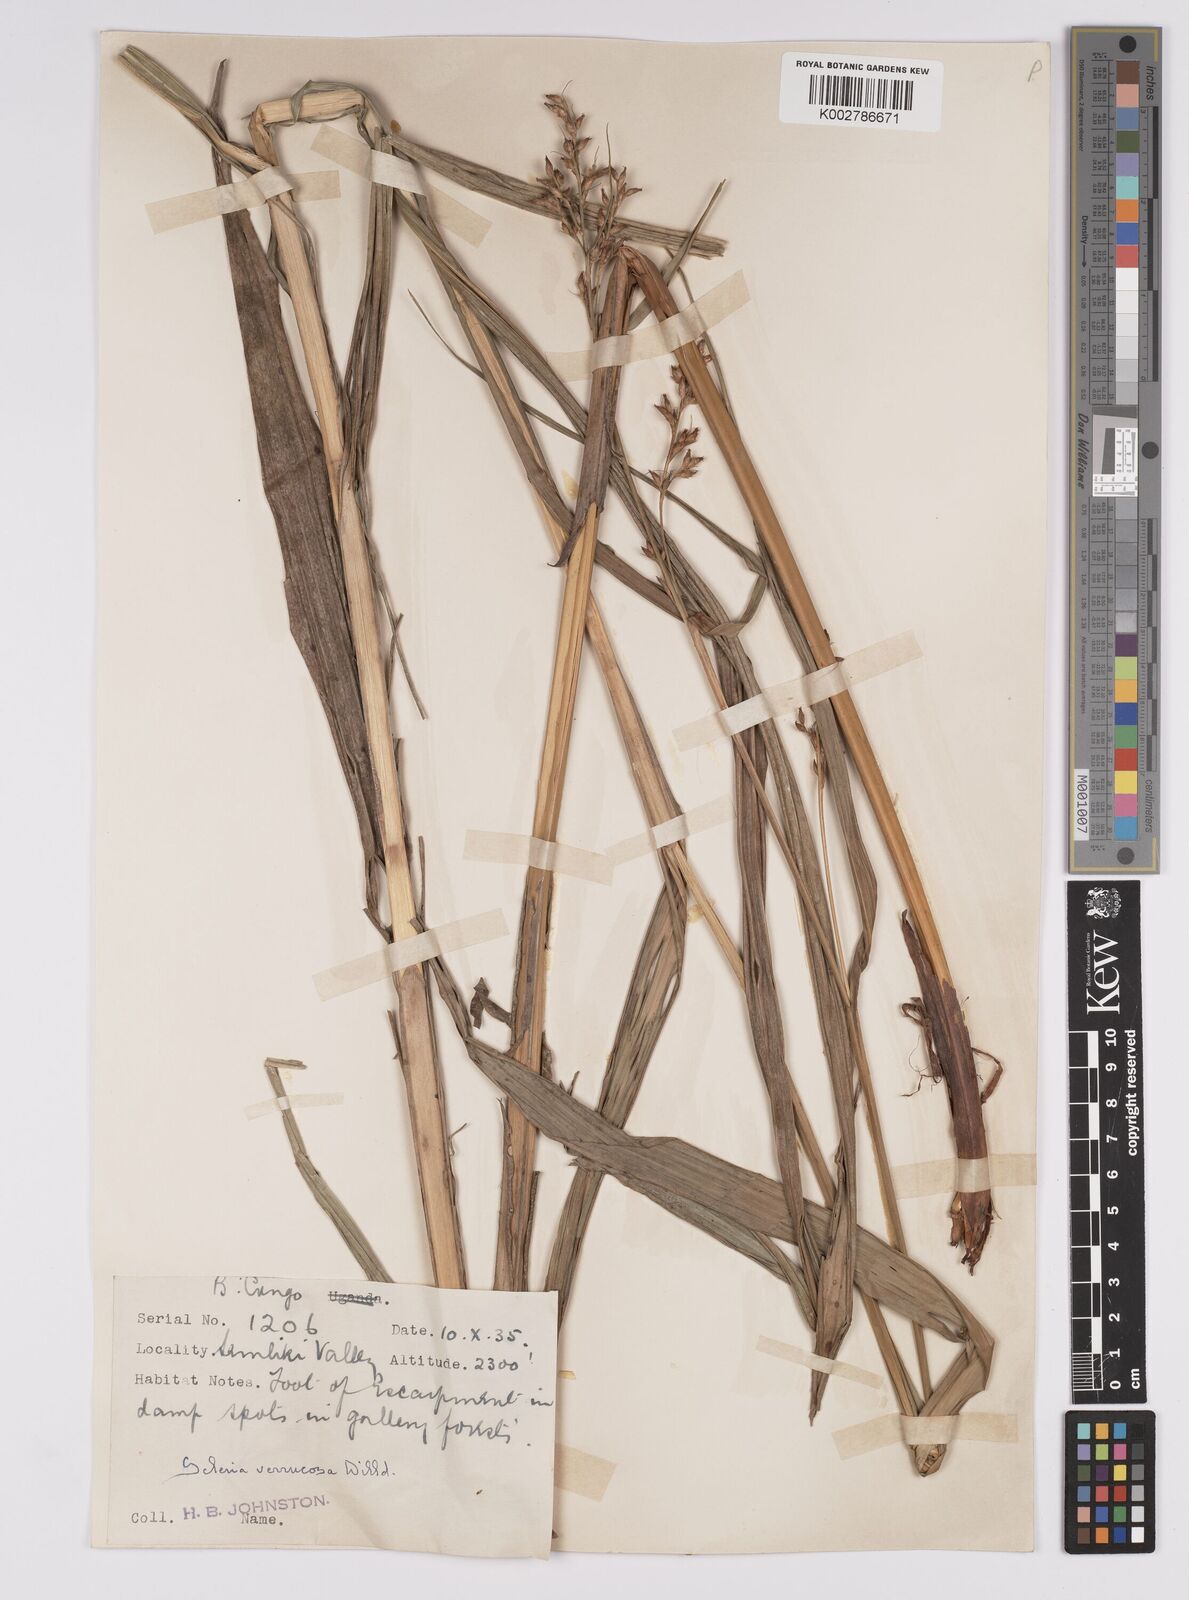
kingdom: Plantae
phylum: Tracheophyta
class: Liliopsida
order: Poales
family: Cyperaceae
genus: Scleria
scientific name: Scleria racemosa
